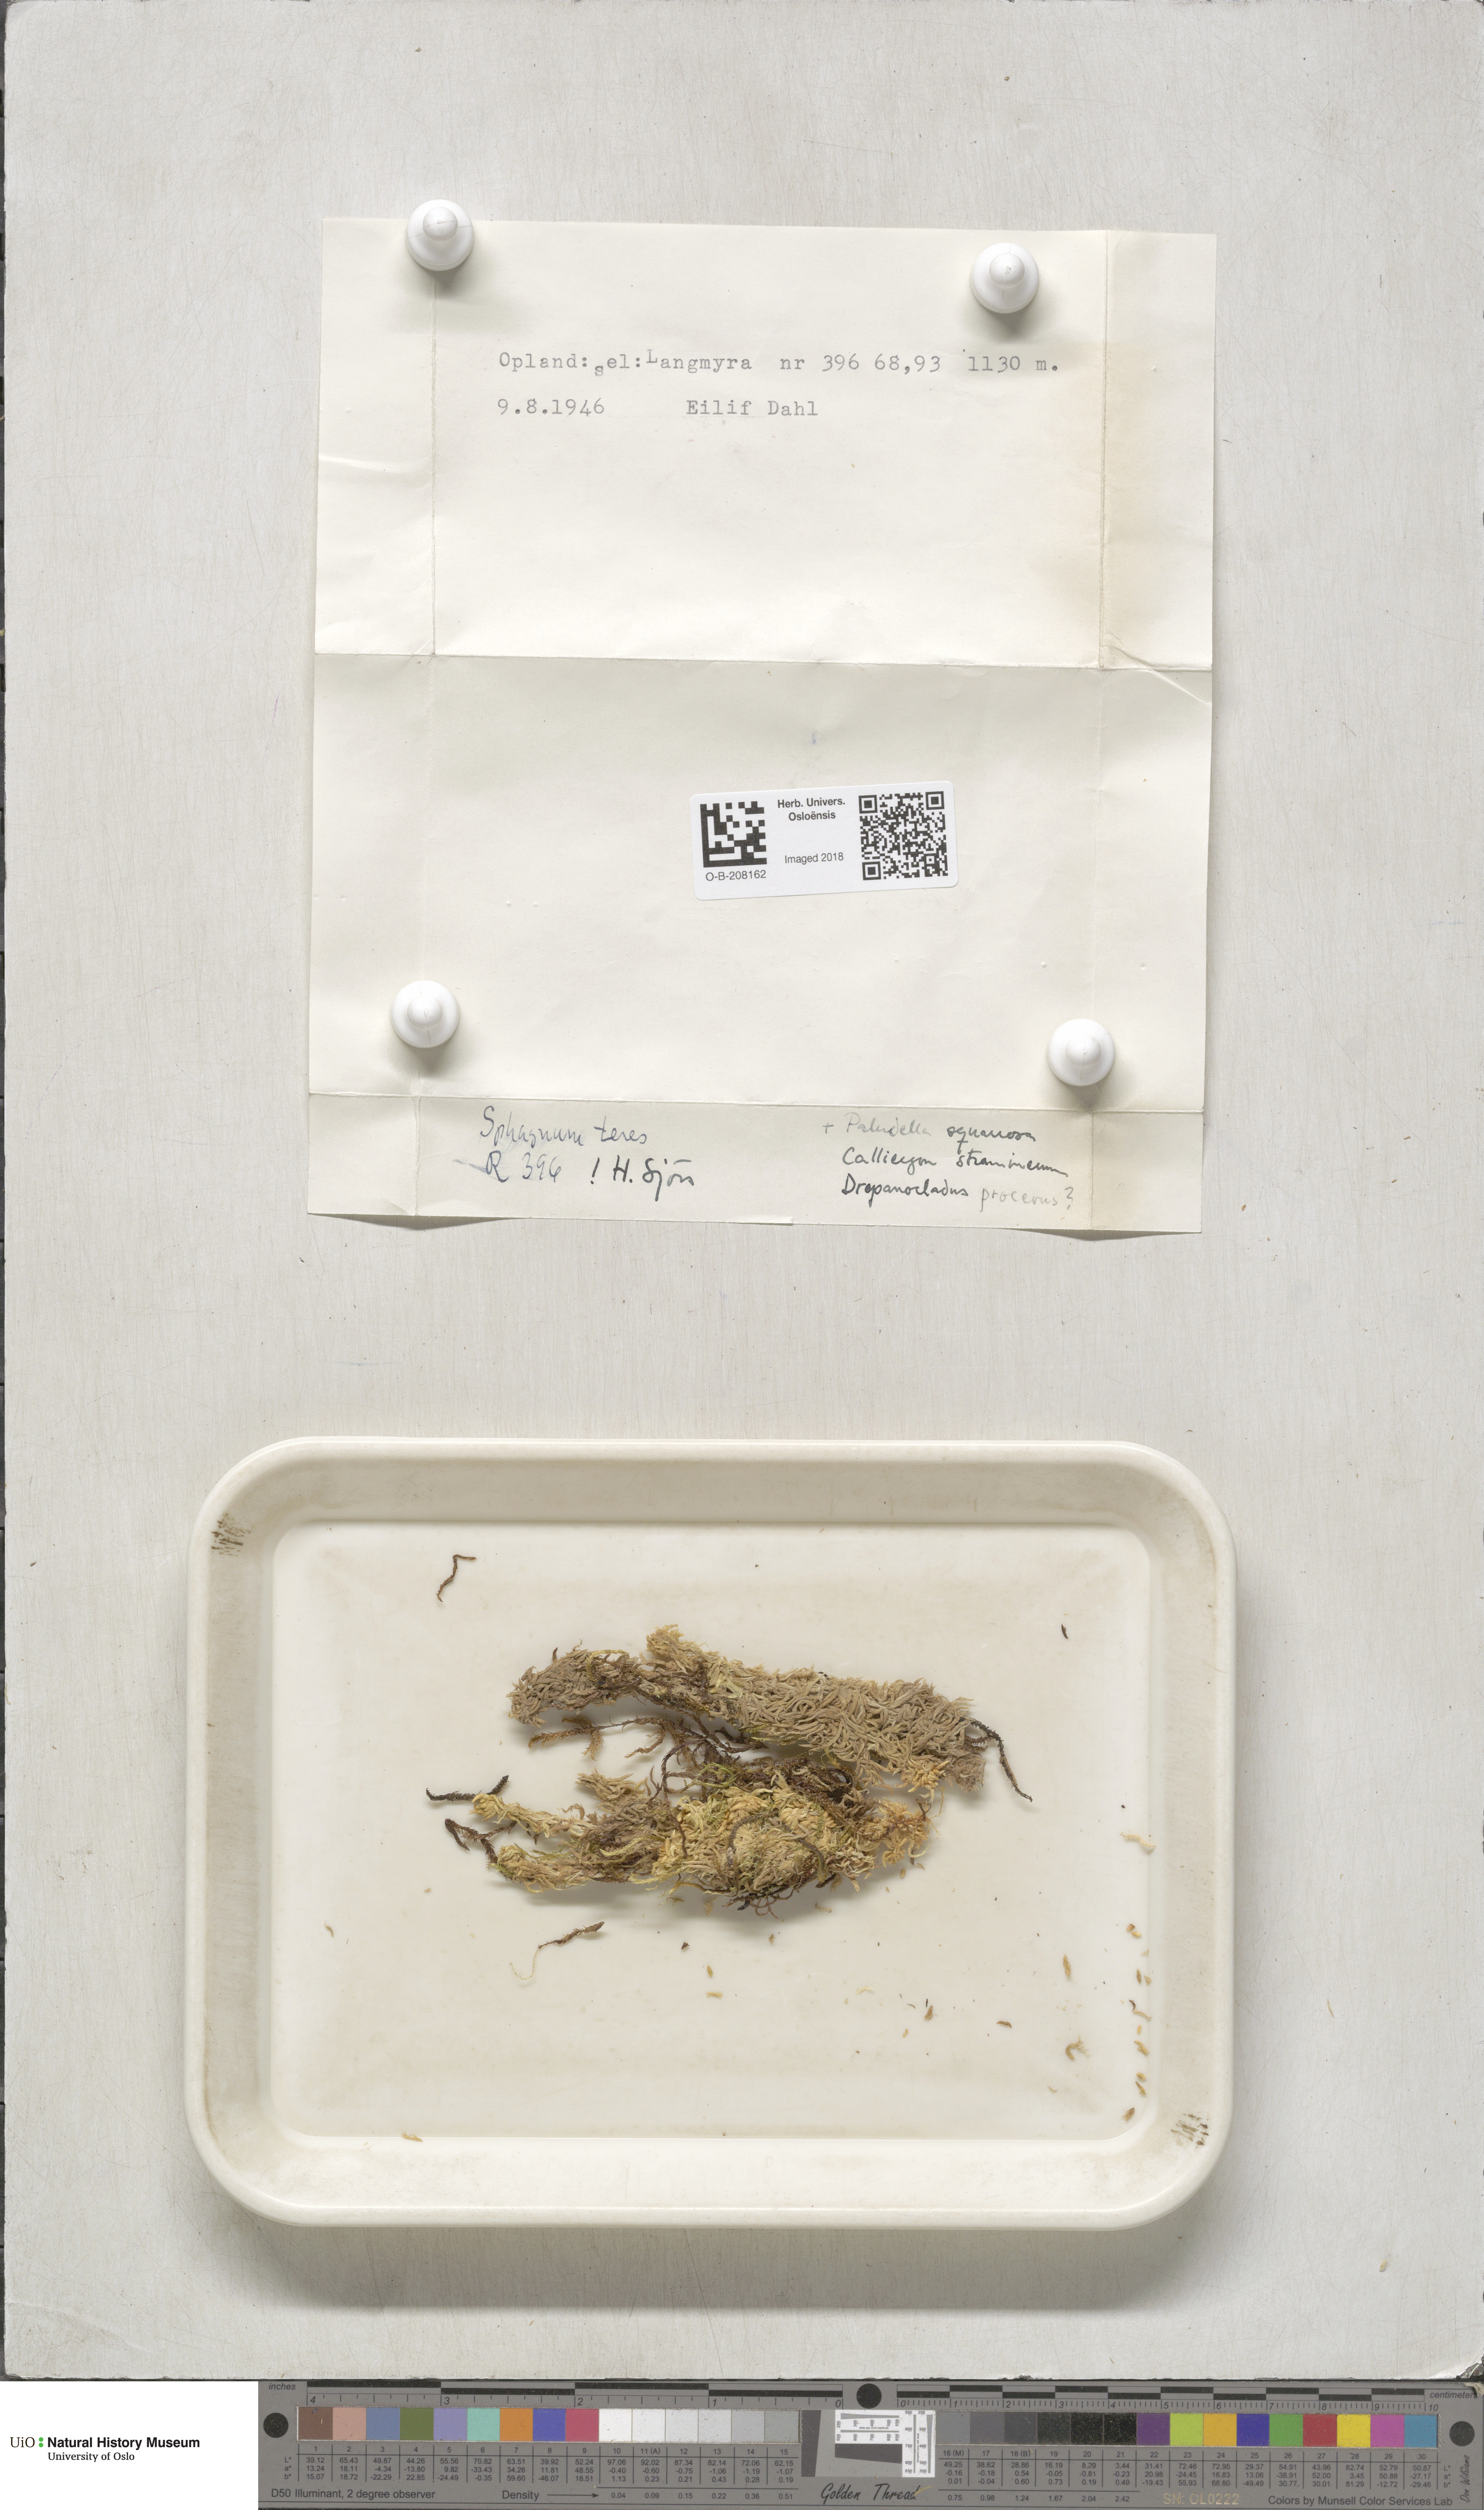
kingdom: Plantae
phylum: Bryophyta
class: Sphagnopsida
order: Sphagnales
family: Sphagnaceae
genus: Sphagnum
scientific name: Sphagnum teres
